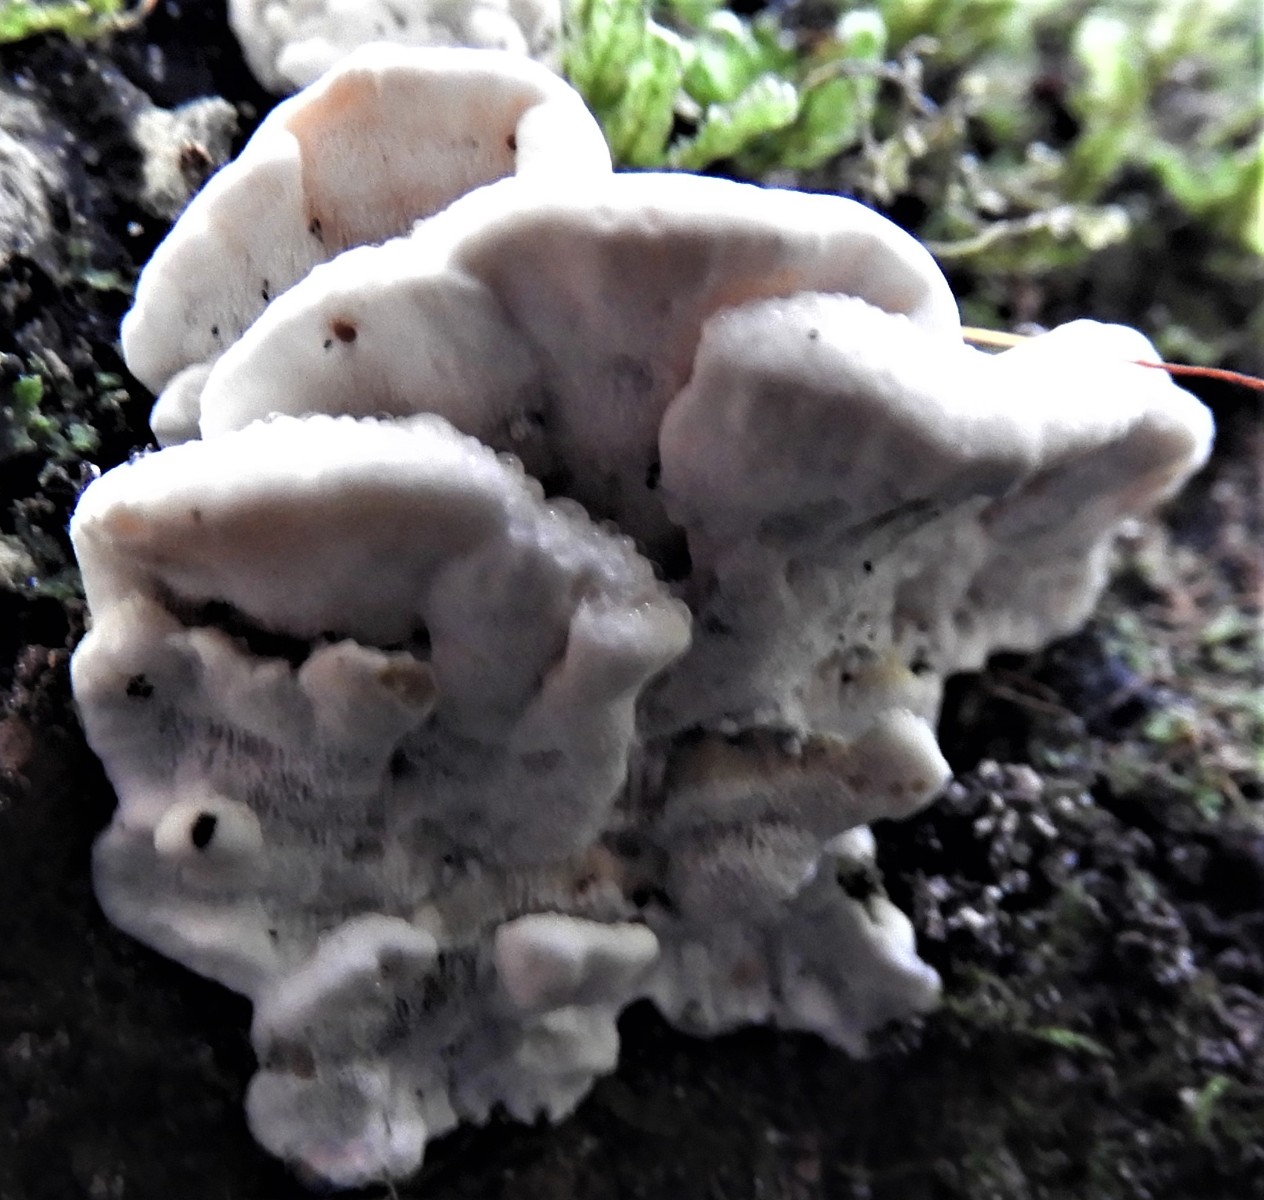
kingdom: Fungi
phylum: Basidiomycota
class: Agaricomycetes
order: Polyporales
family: Fomitopsidaceae
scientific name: Fomitopsidaceae
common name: hovporesvampfamilien
